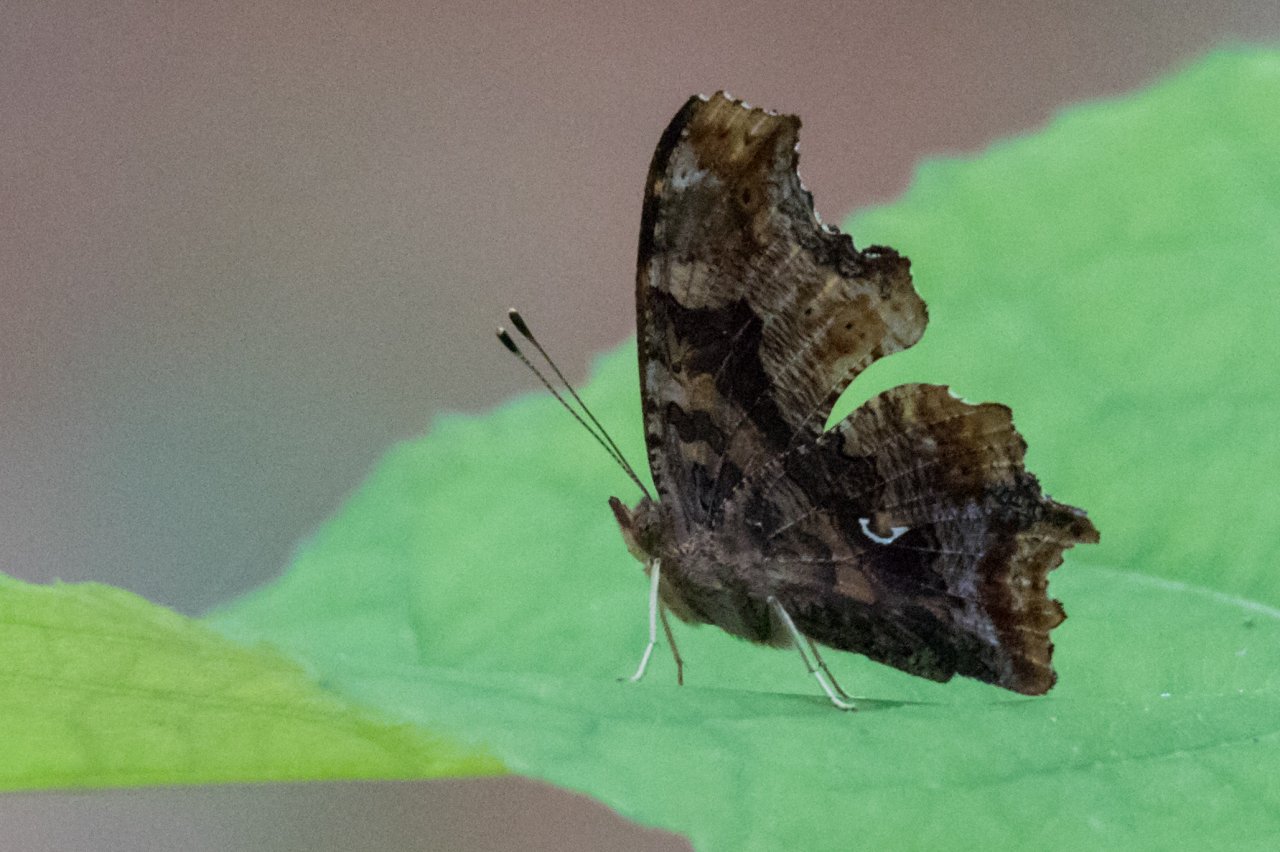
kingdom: Animalia
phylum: Arthropoda
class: Insecta
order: Lepidoptera
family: Nymphalidae
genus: Polygonia
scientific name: Polygonia comma
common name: Eastern Comma
